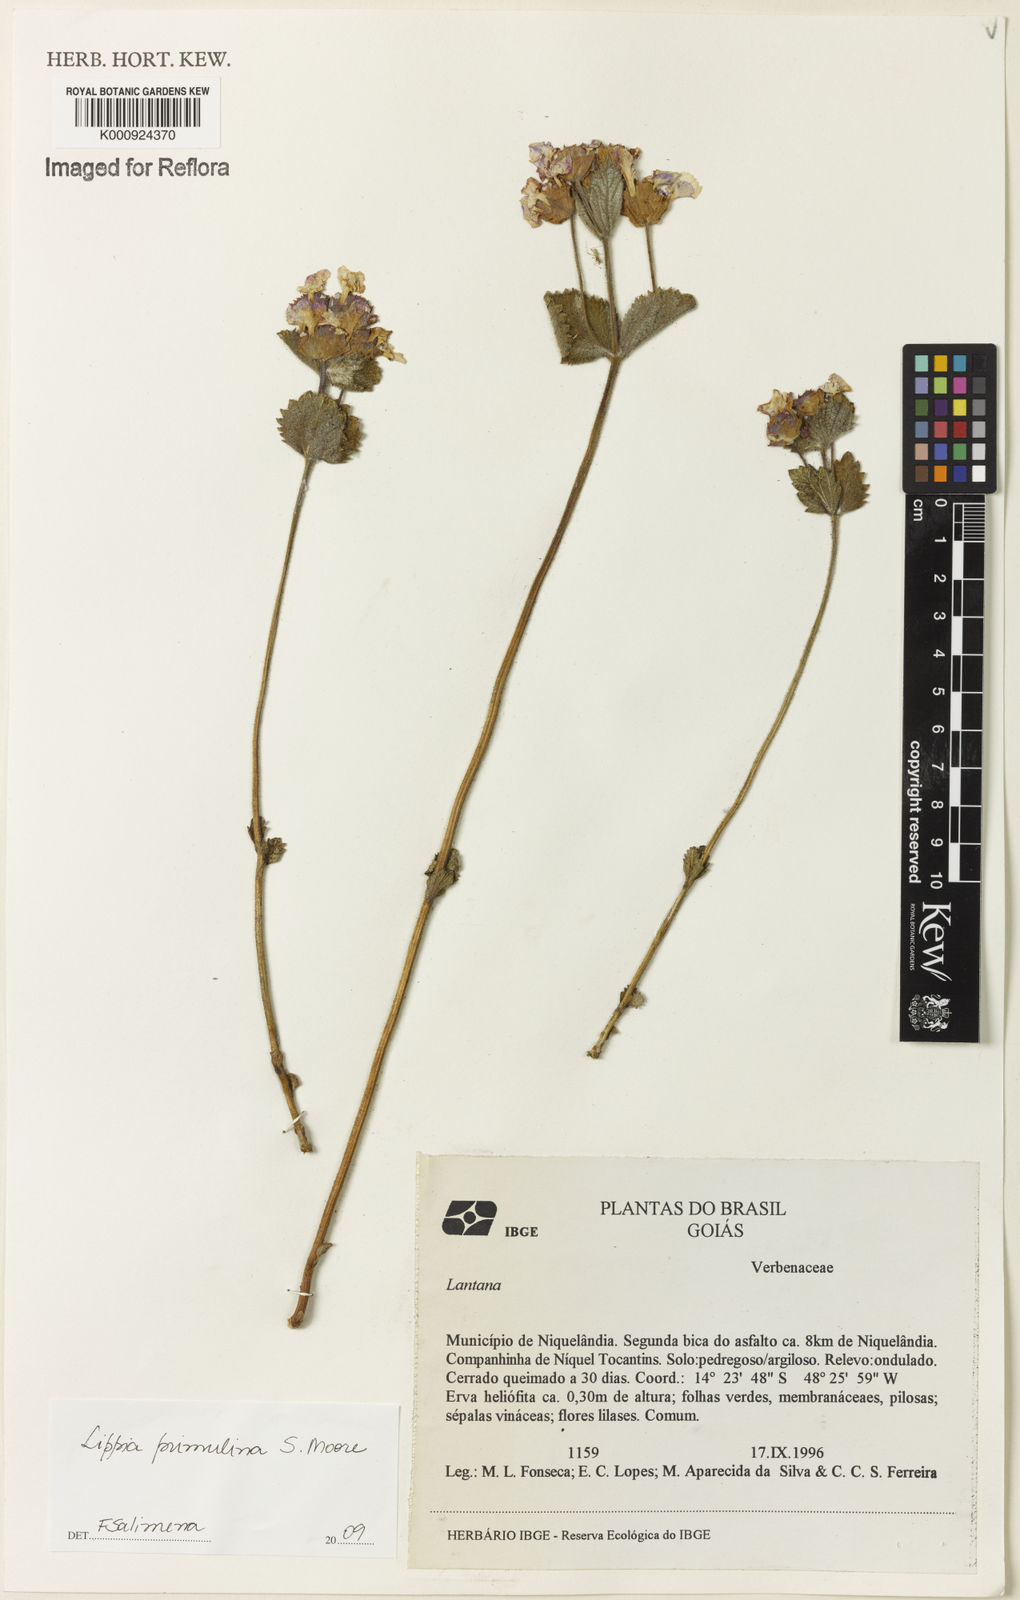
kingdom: Plantae
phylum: Tracheophyta
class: Magnoliopsida
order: Lamiales
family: Verbenaceae
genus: Lippia
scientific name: Lippia primulina
